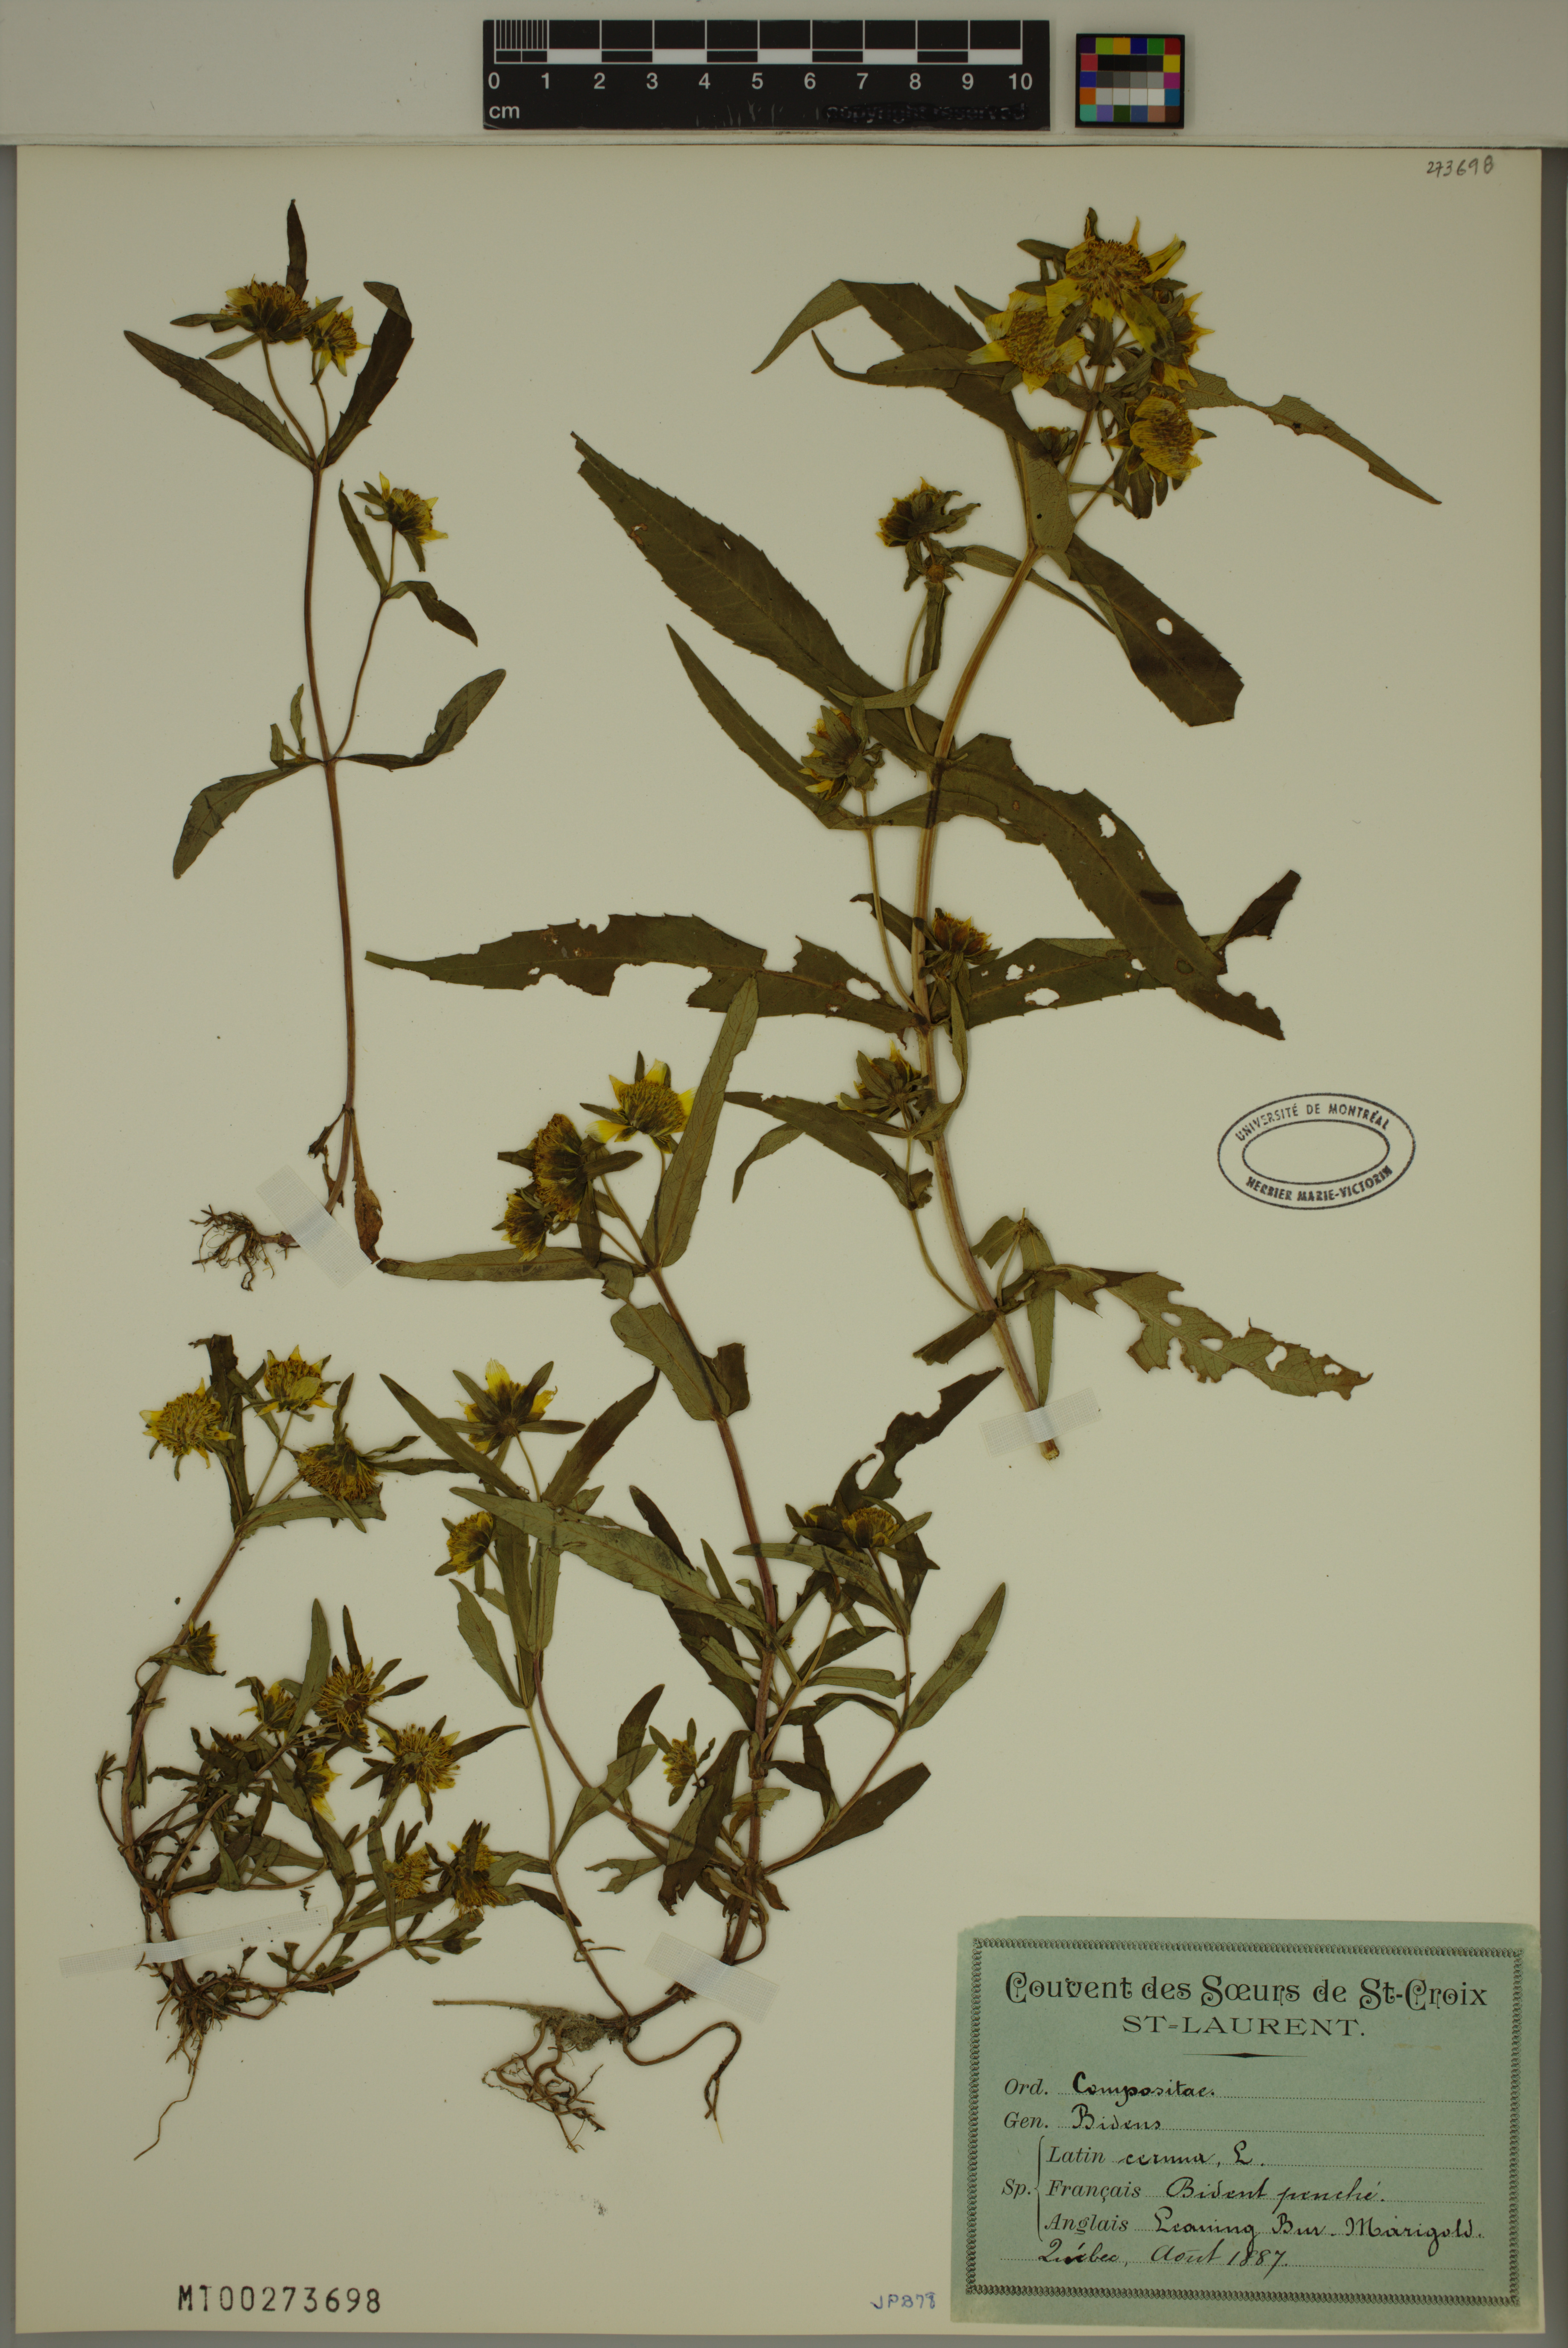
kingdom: Plantae
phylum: Tracheophyta
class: Magnoliopsida
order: Asterales
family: Asteraceae
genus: Bidens
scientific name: Bidens cernua
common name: Nodding bur-marigold
